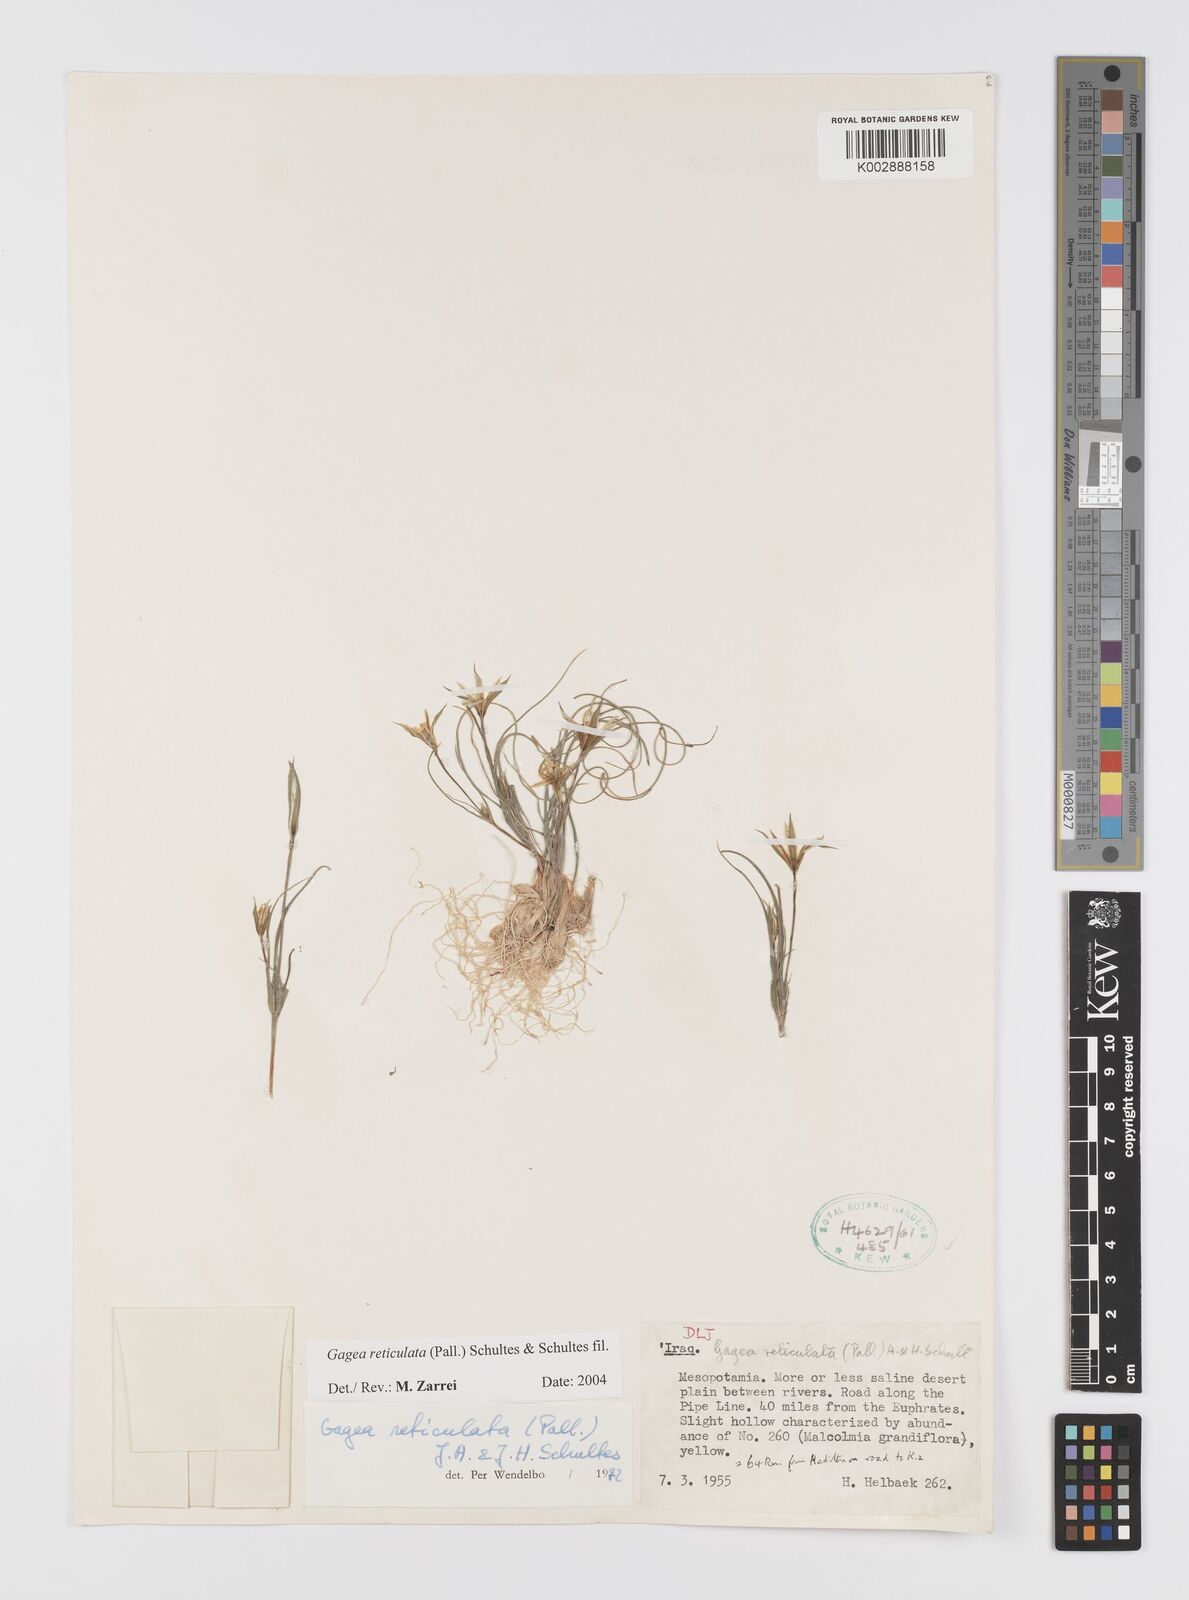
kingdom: Plantae
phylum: Tracheophyta
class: Liliopsida
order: Liliales
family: Liliaceae
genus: Gagea
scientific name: Gagea reticulata
